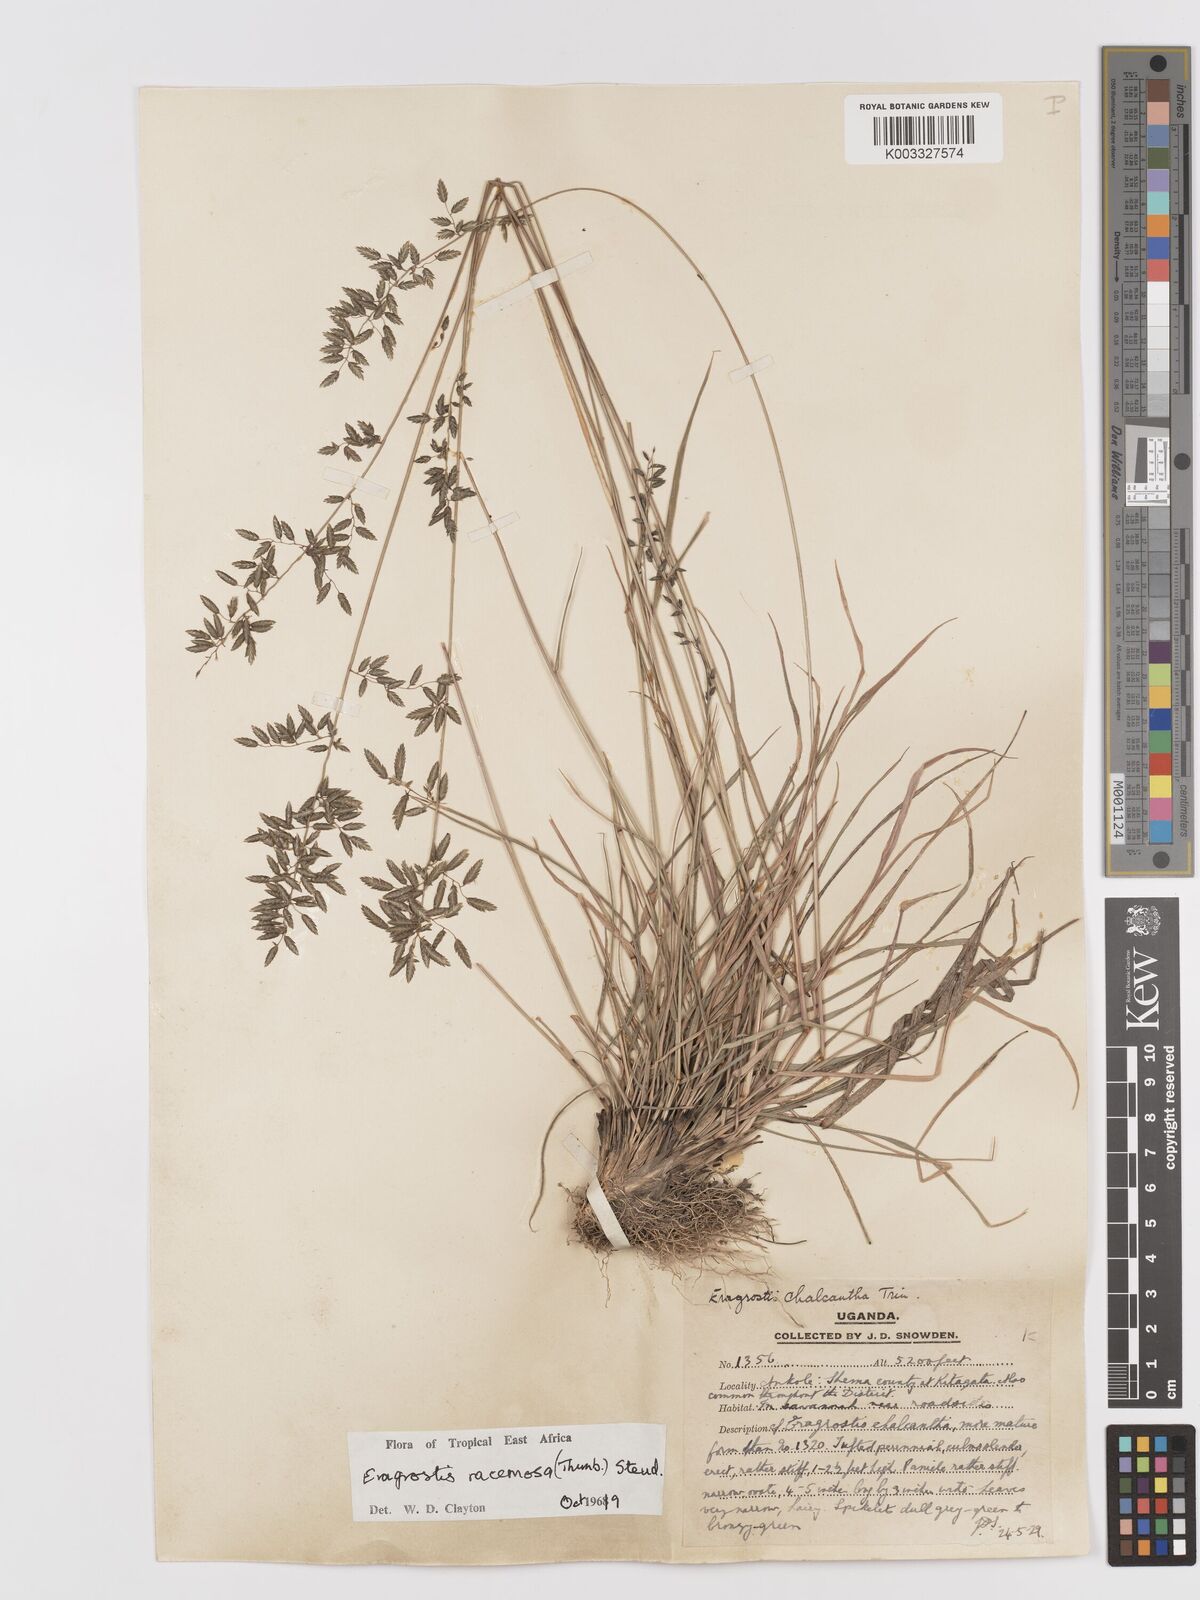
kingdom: Plantae
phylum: Tracheophyta
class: Liliopsida
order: Poales
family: Poaceae
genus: Eragrostis
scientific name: Eragrostis racemosa
